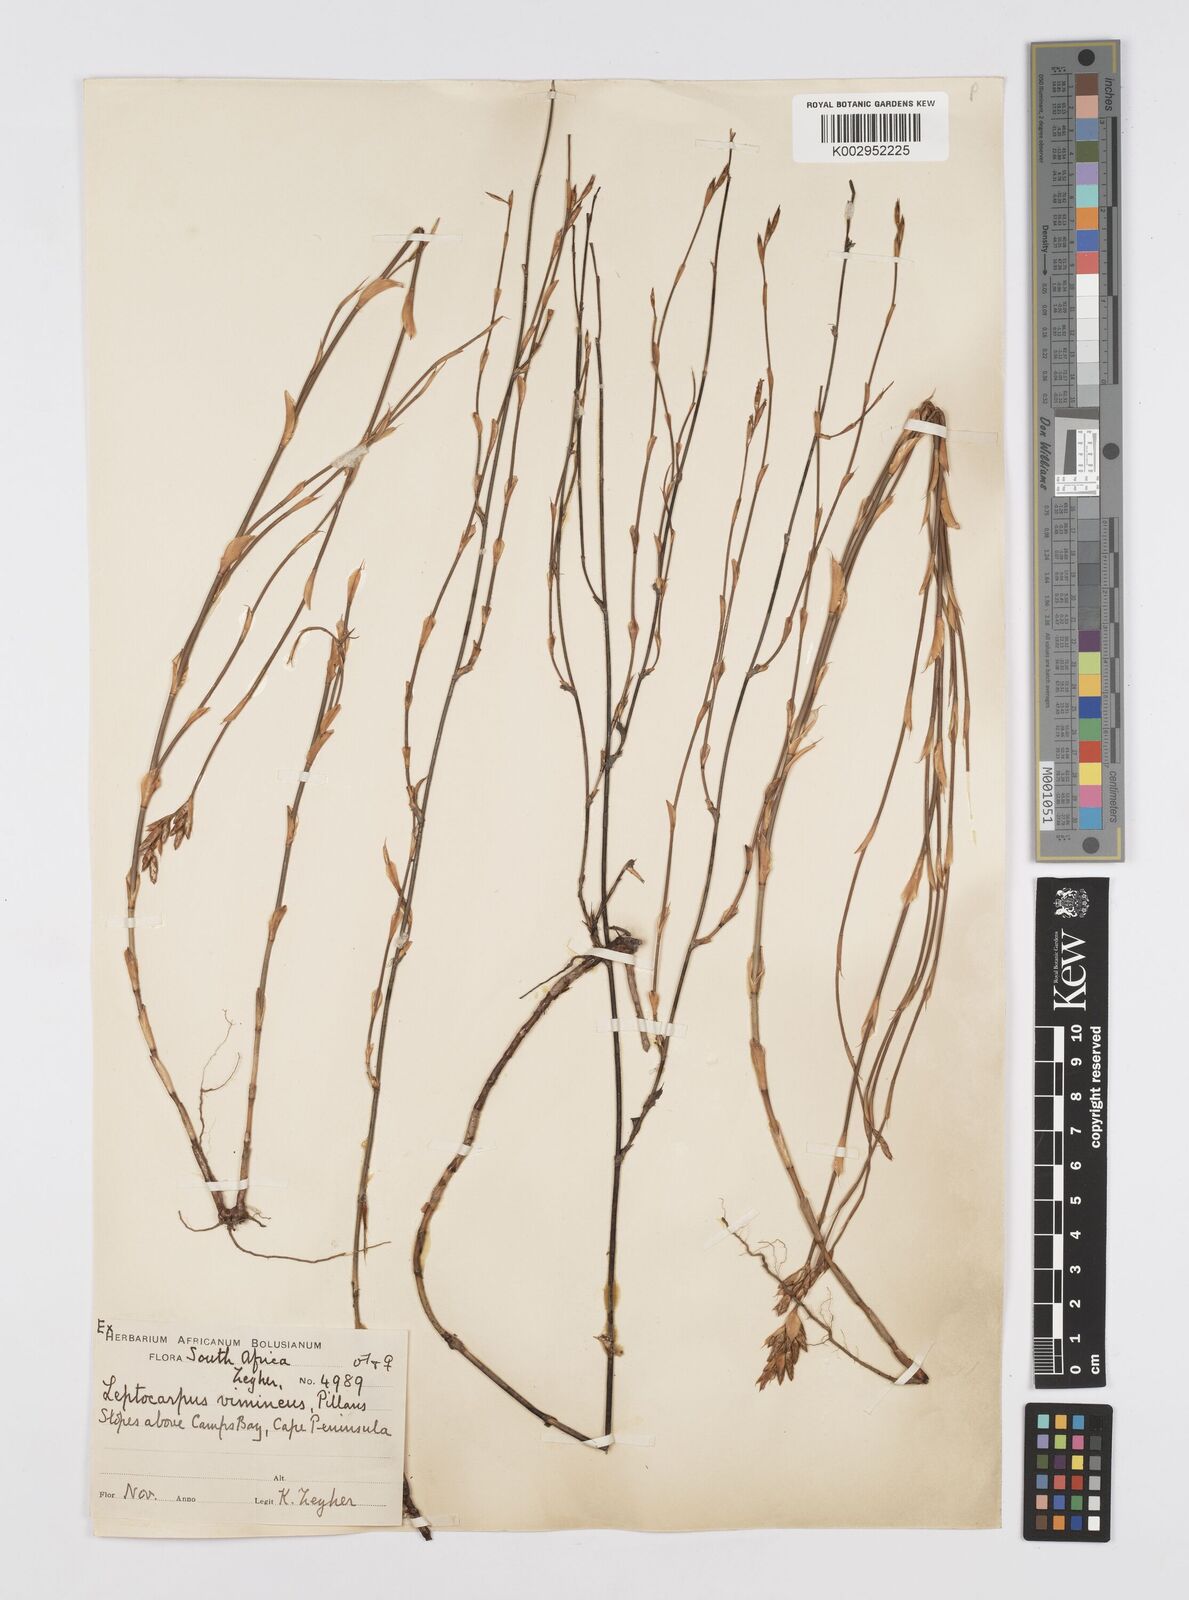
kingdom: Plantae
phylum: Tracheophyta
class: Liliopsida
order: Poales
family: Restionaceae
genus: Restio
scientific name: Restio vimineus
